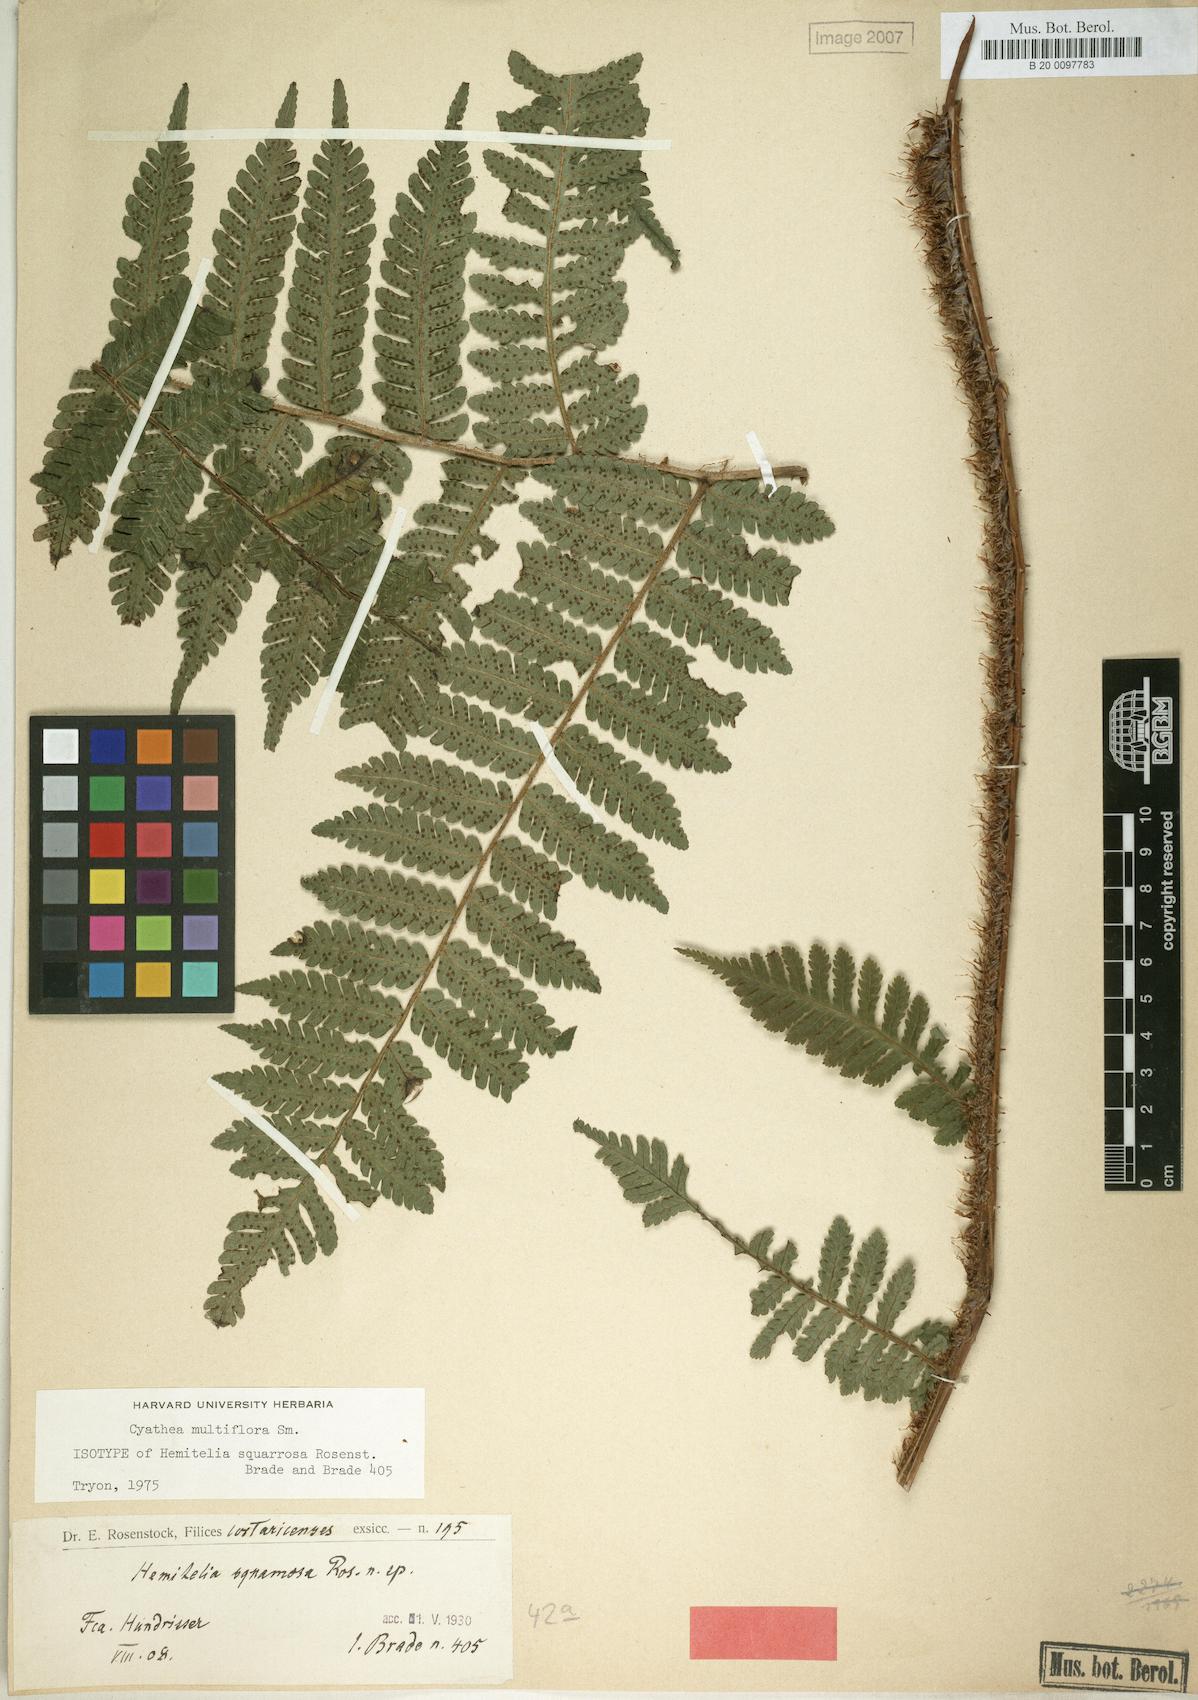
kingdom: Plantae
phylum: Tracheophyta
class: Polypodiopsida
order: Cyatheales
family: Cyatheaceae
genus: Cyathea
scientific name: Cyathea multiflora
